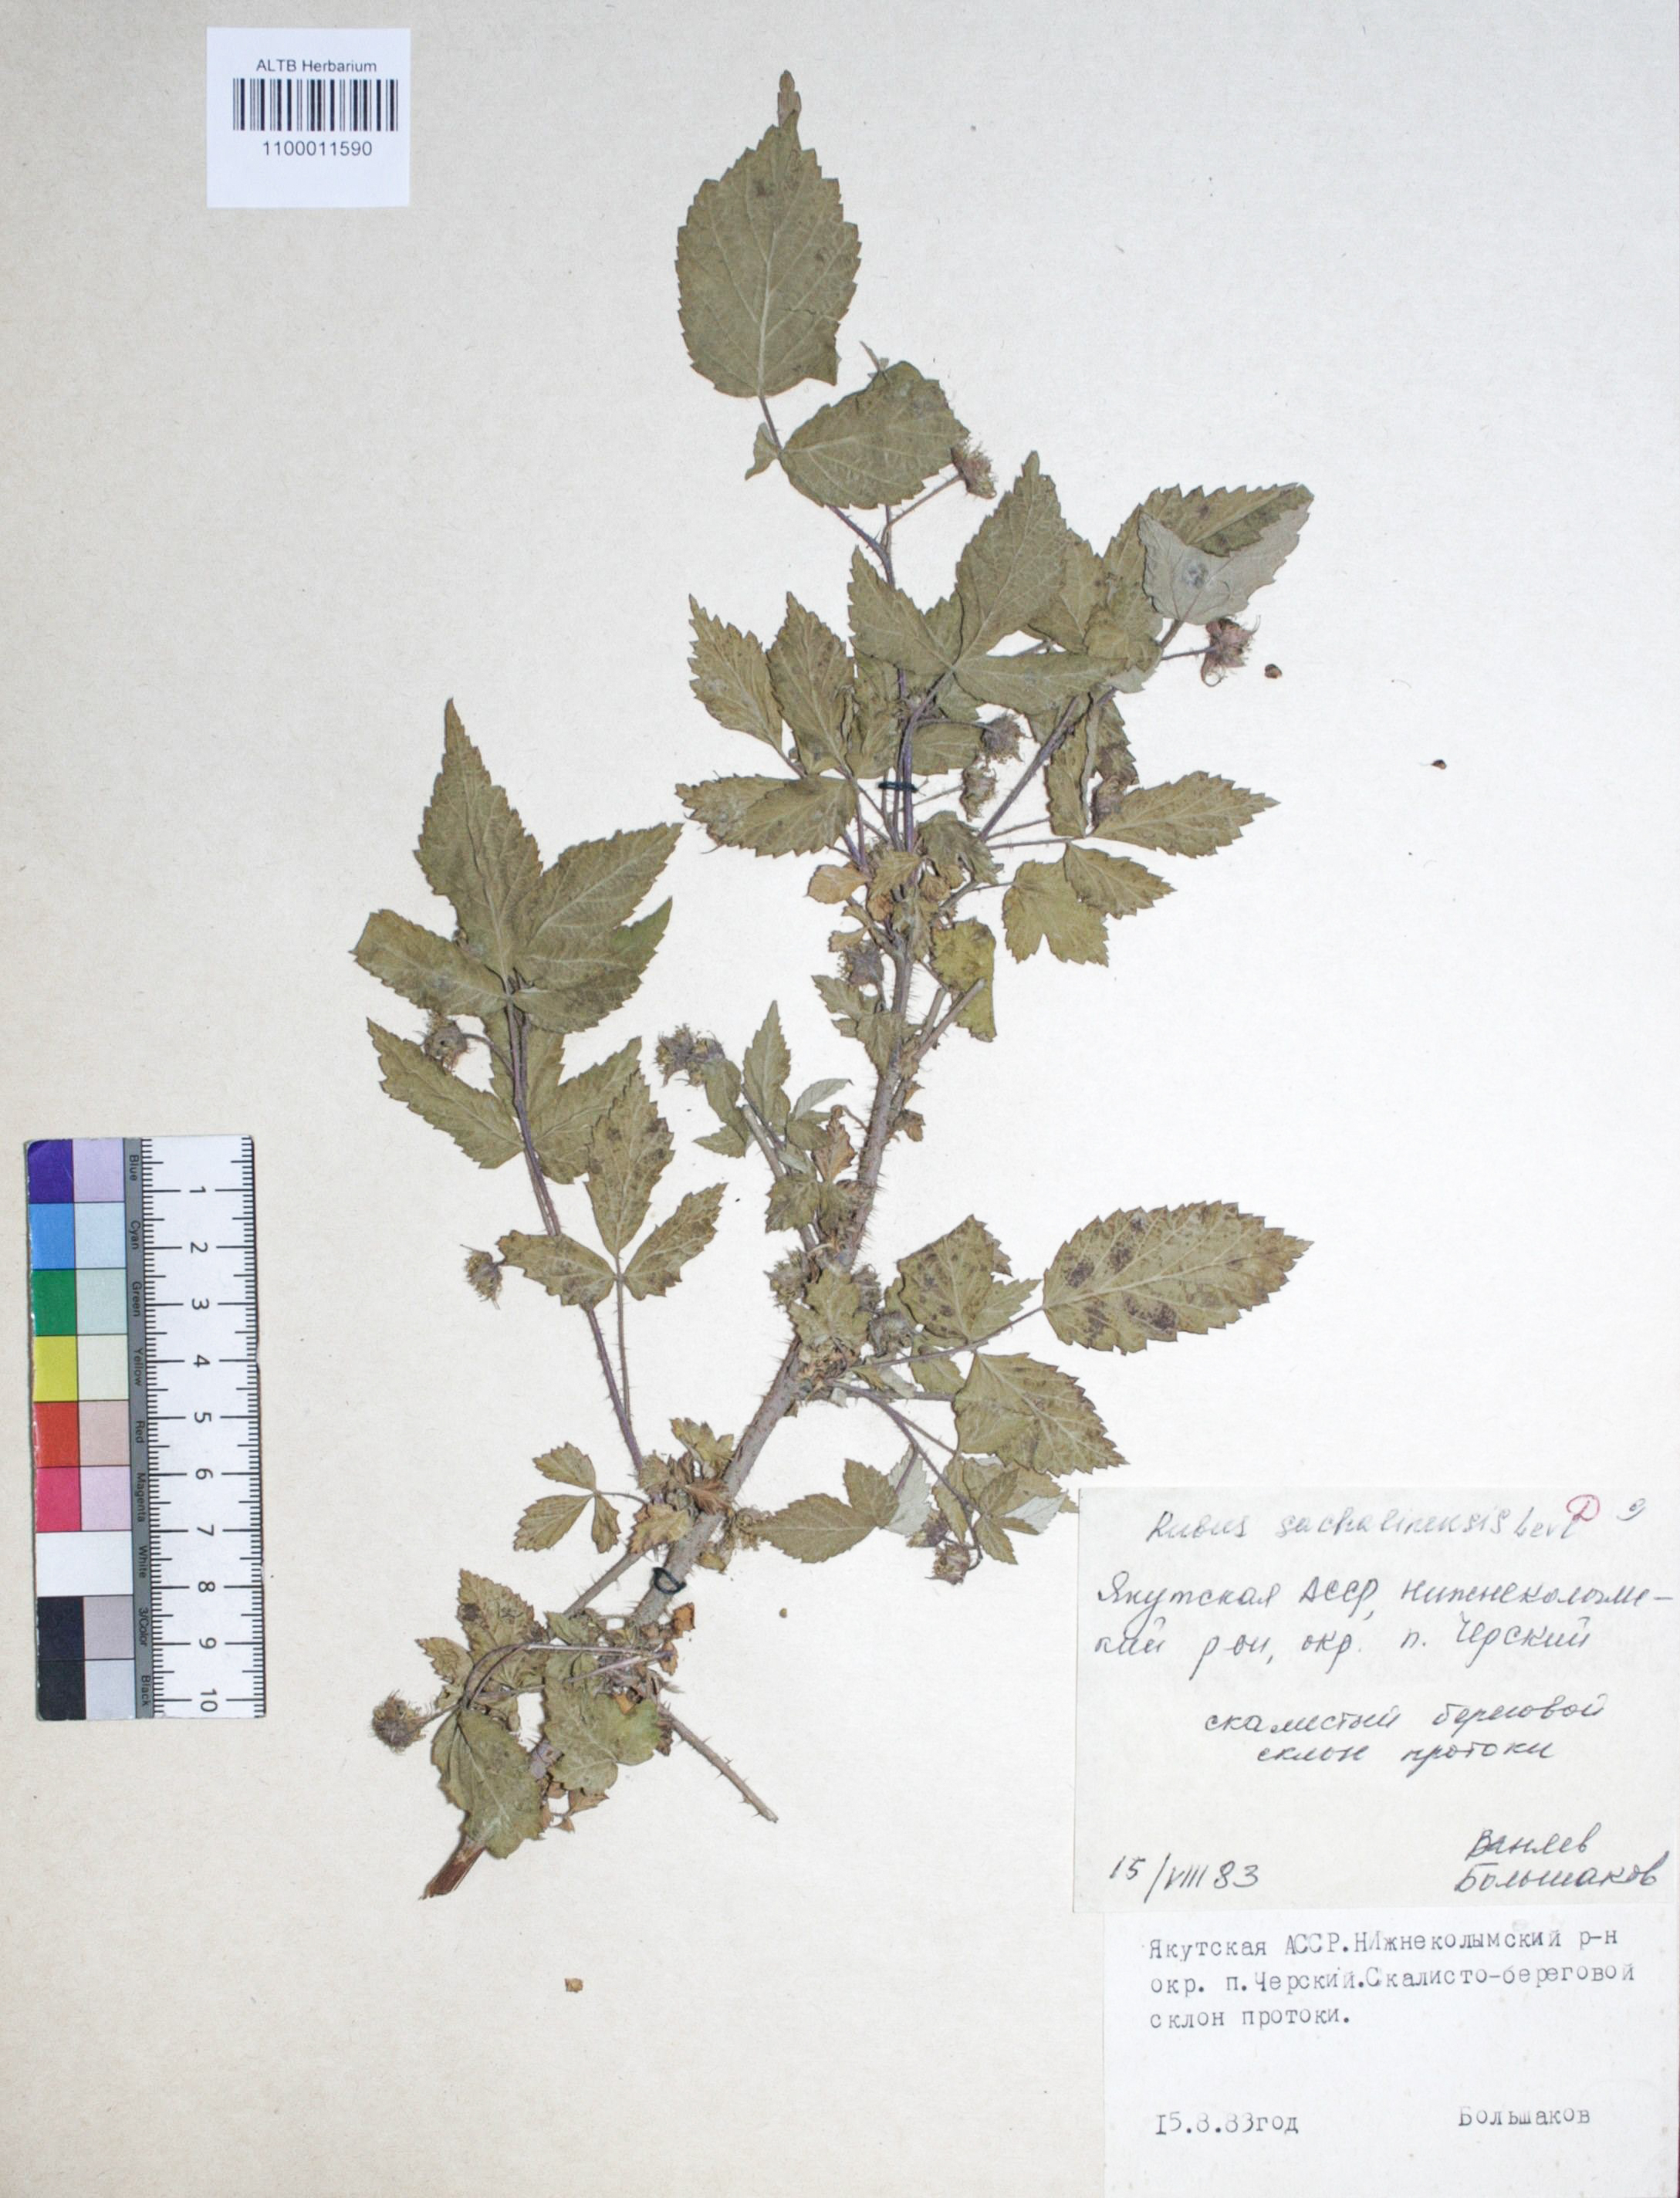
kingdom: Plantae
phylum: Tracheophyta
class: Magnoliopsida
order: Rosales
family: Rosaceae
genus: Rubus
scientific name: Rubus
